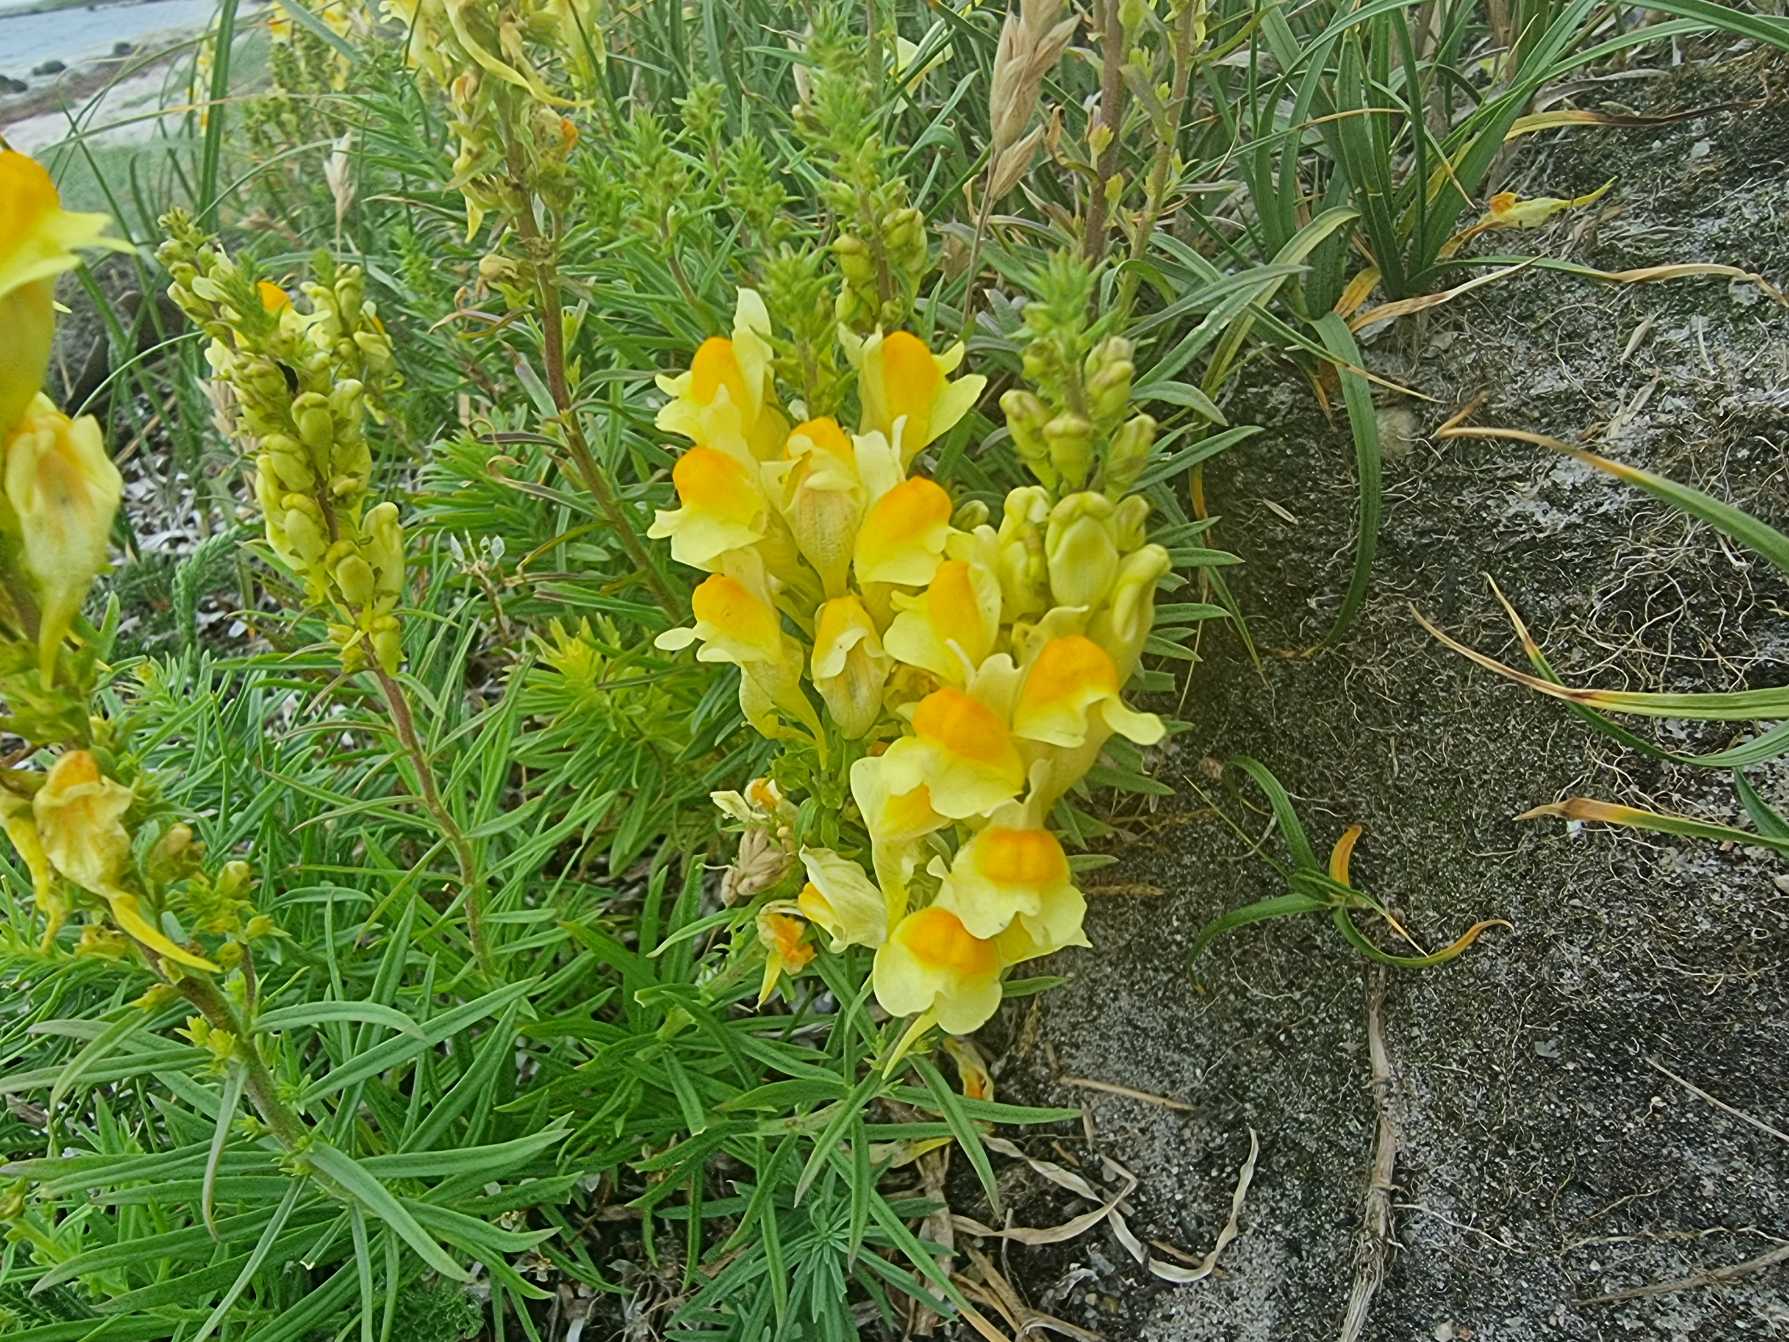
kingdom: Plantae
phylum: Tracheophyta
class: Magnoliopsida
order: Lamiales
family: Plantaginaceae
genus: Linaria
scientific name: Linaria vulgaris
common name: Almindelig torskemund
